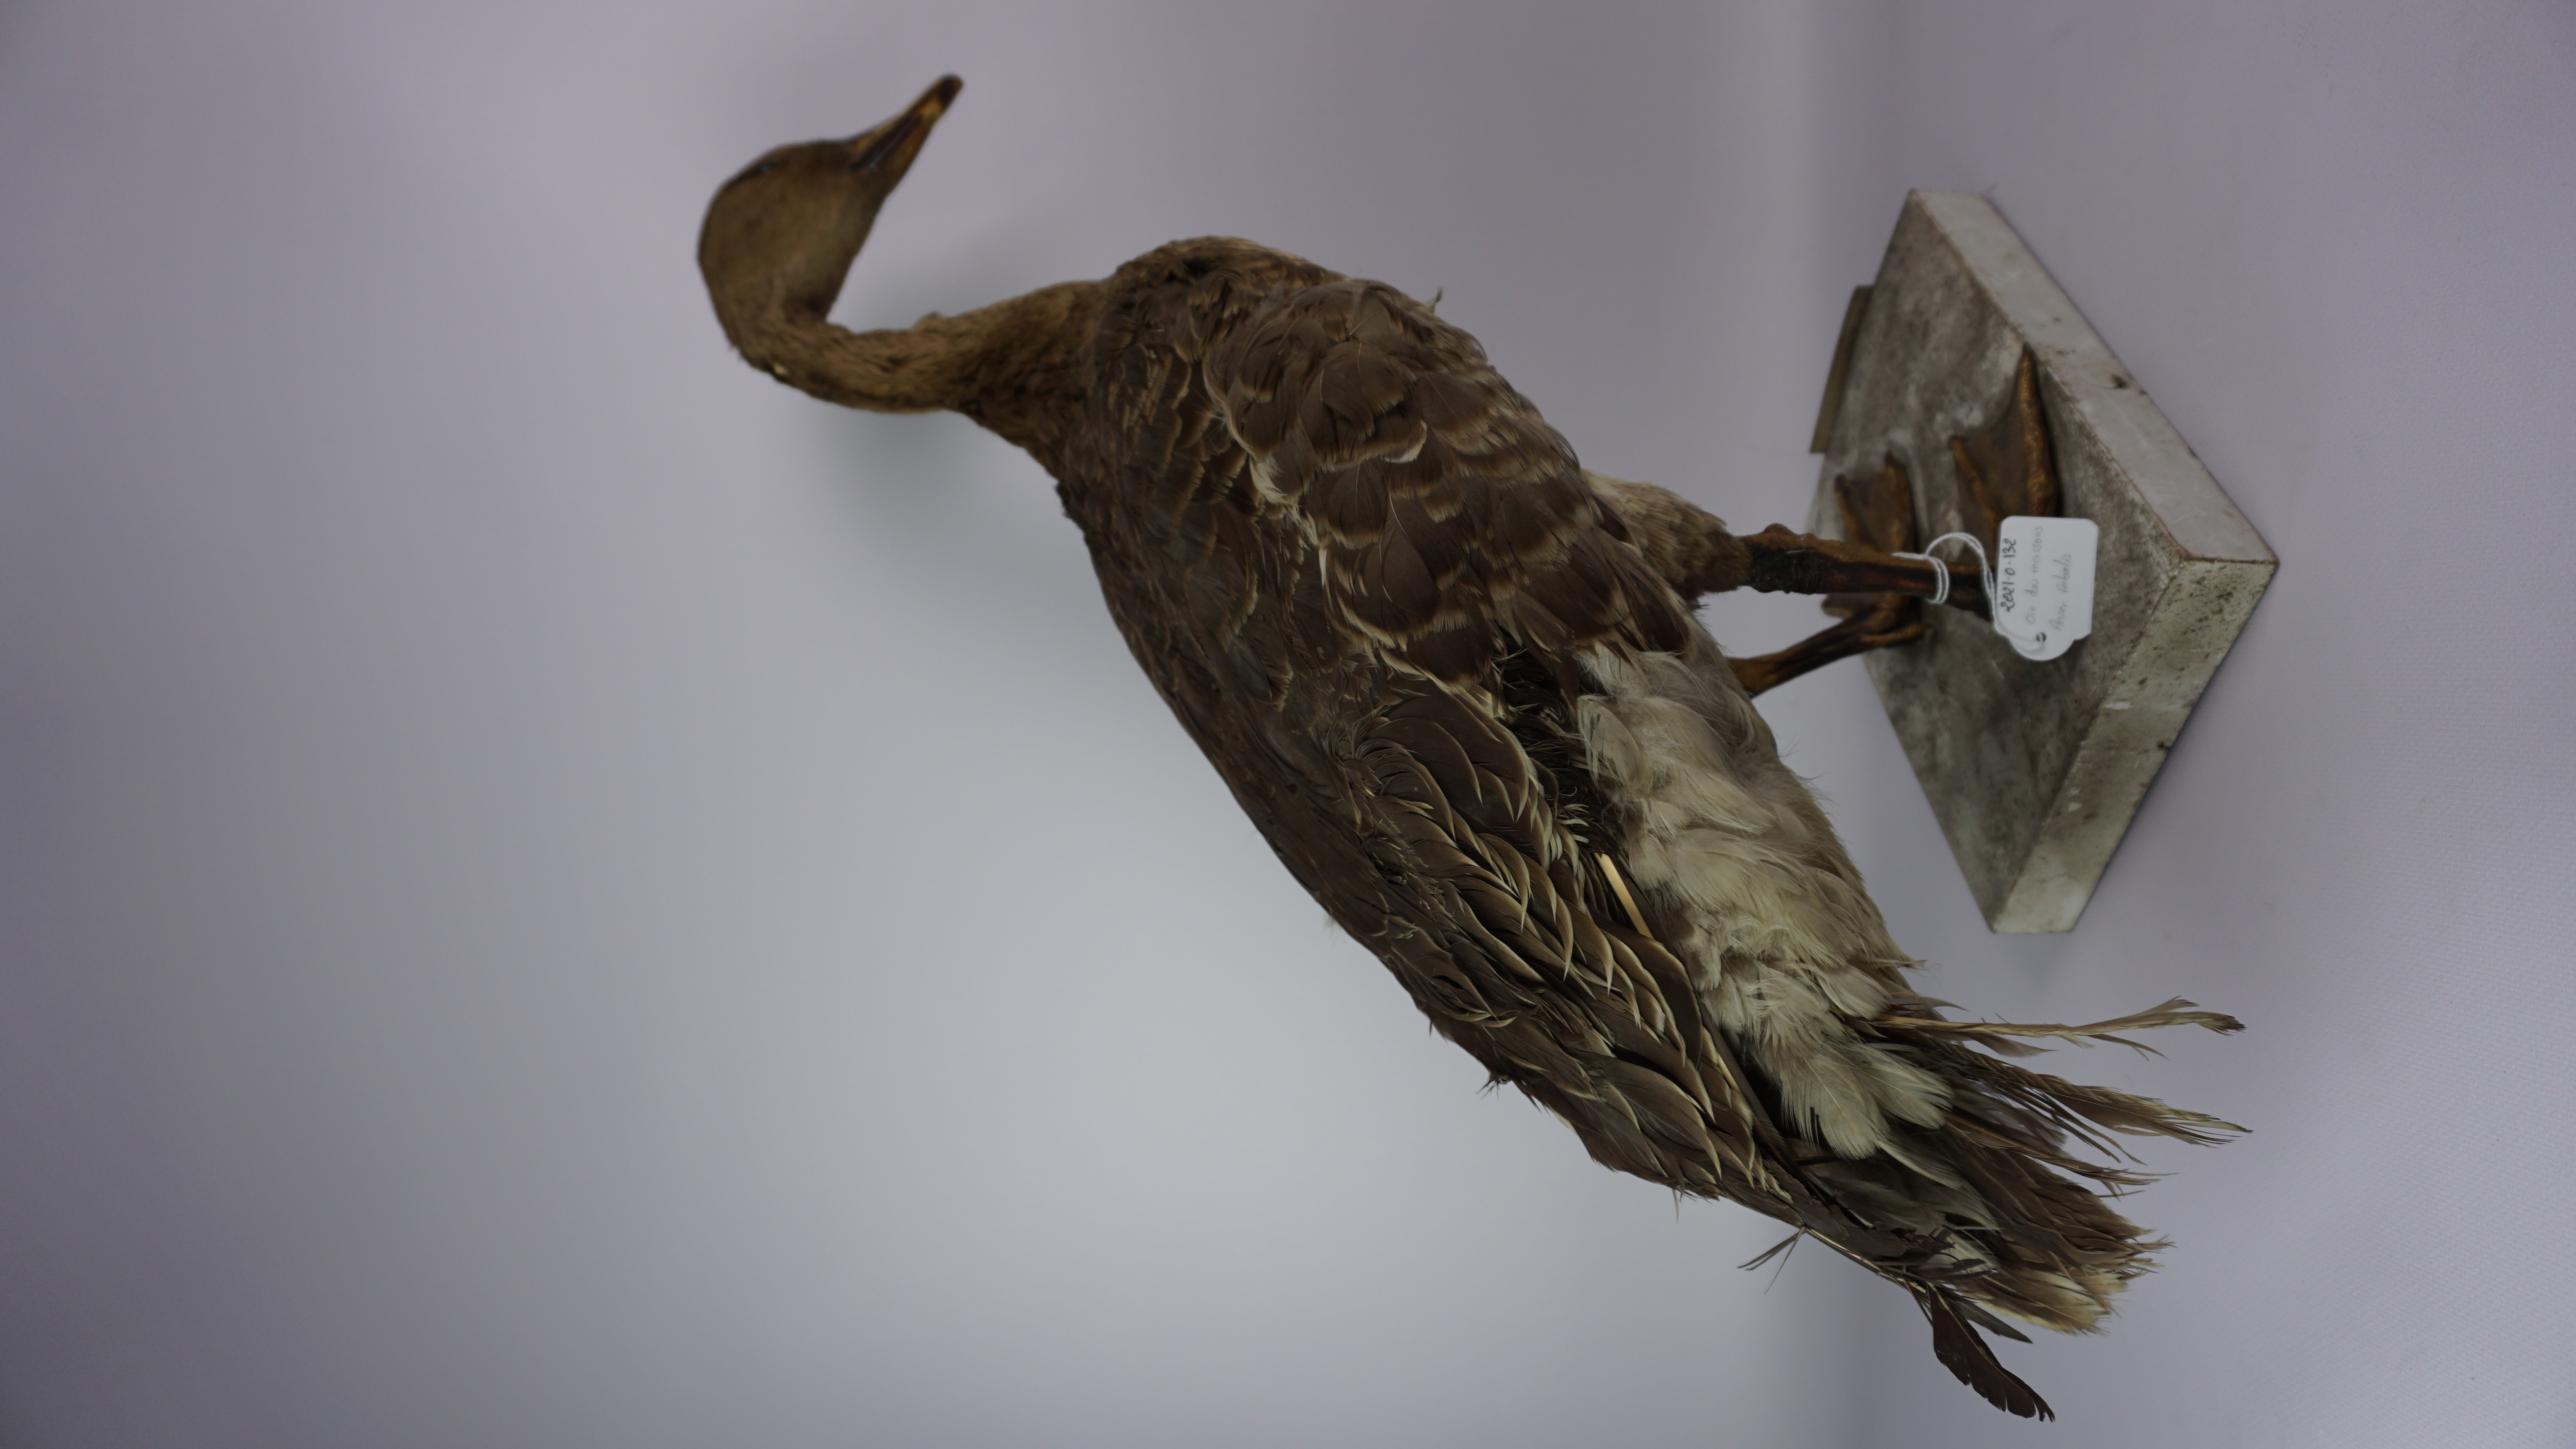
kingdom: Animalia
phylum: Chordata
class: Aves
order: Anseriformes
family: Anatidae
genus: Anser
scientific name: Anser fabalis
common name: Bean goose
